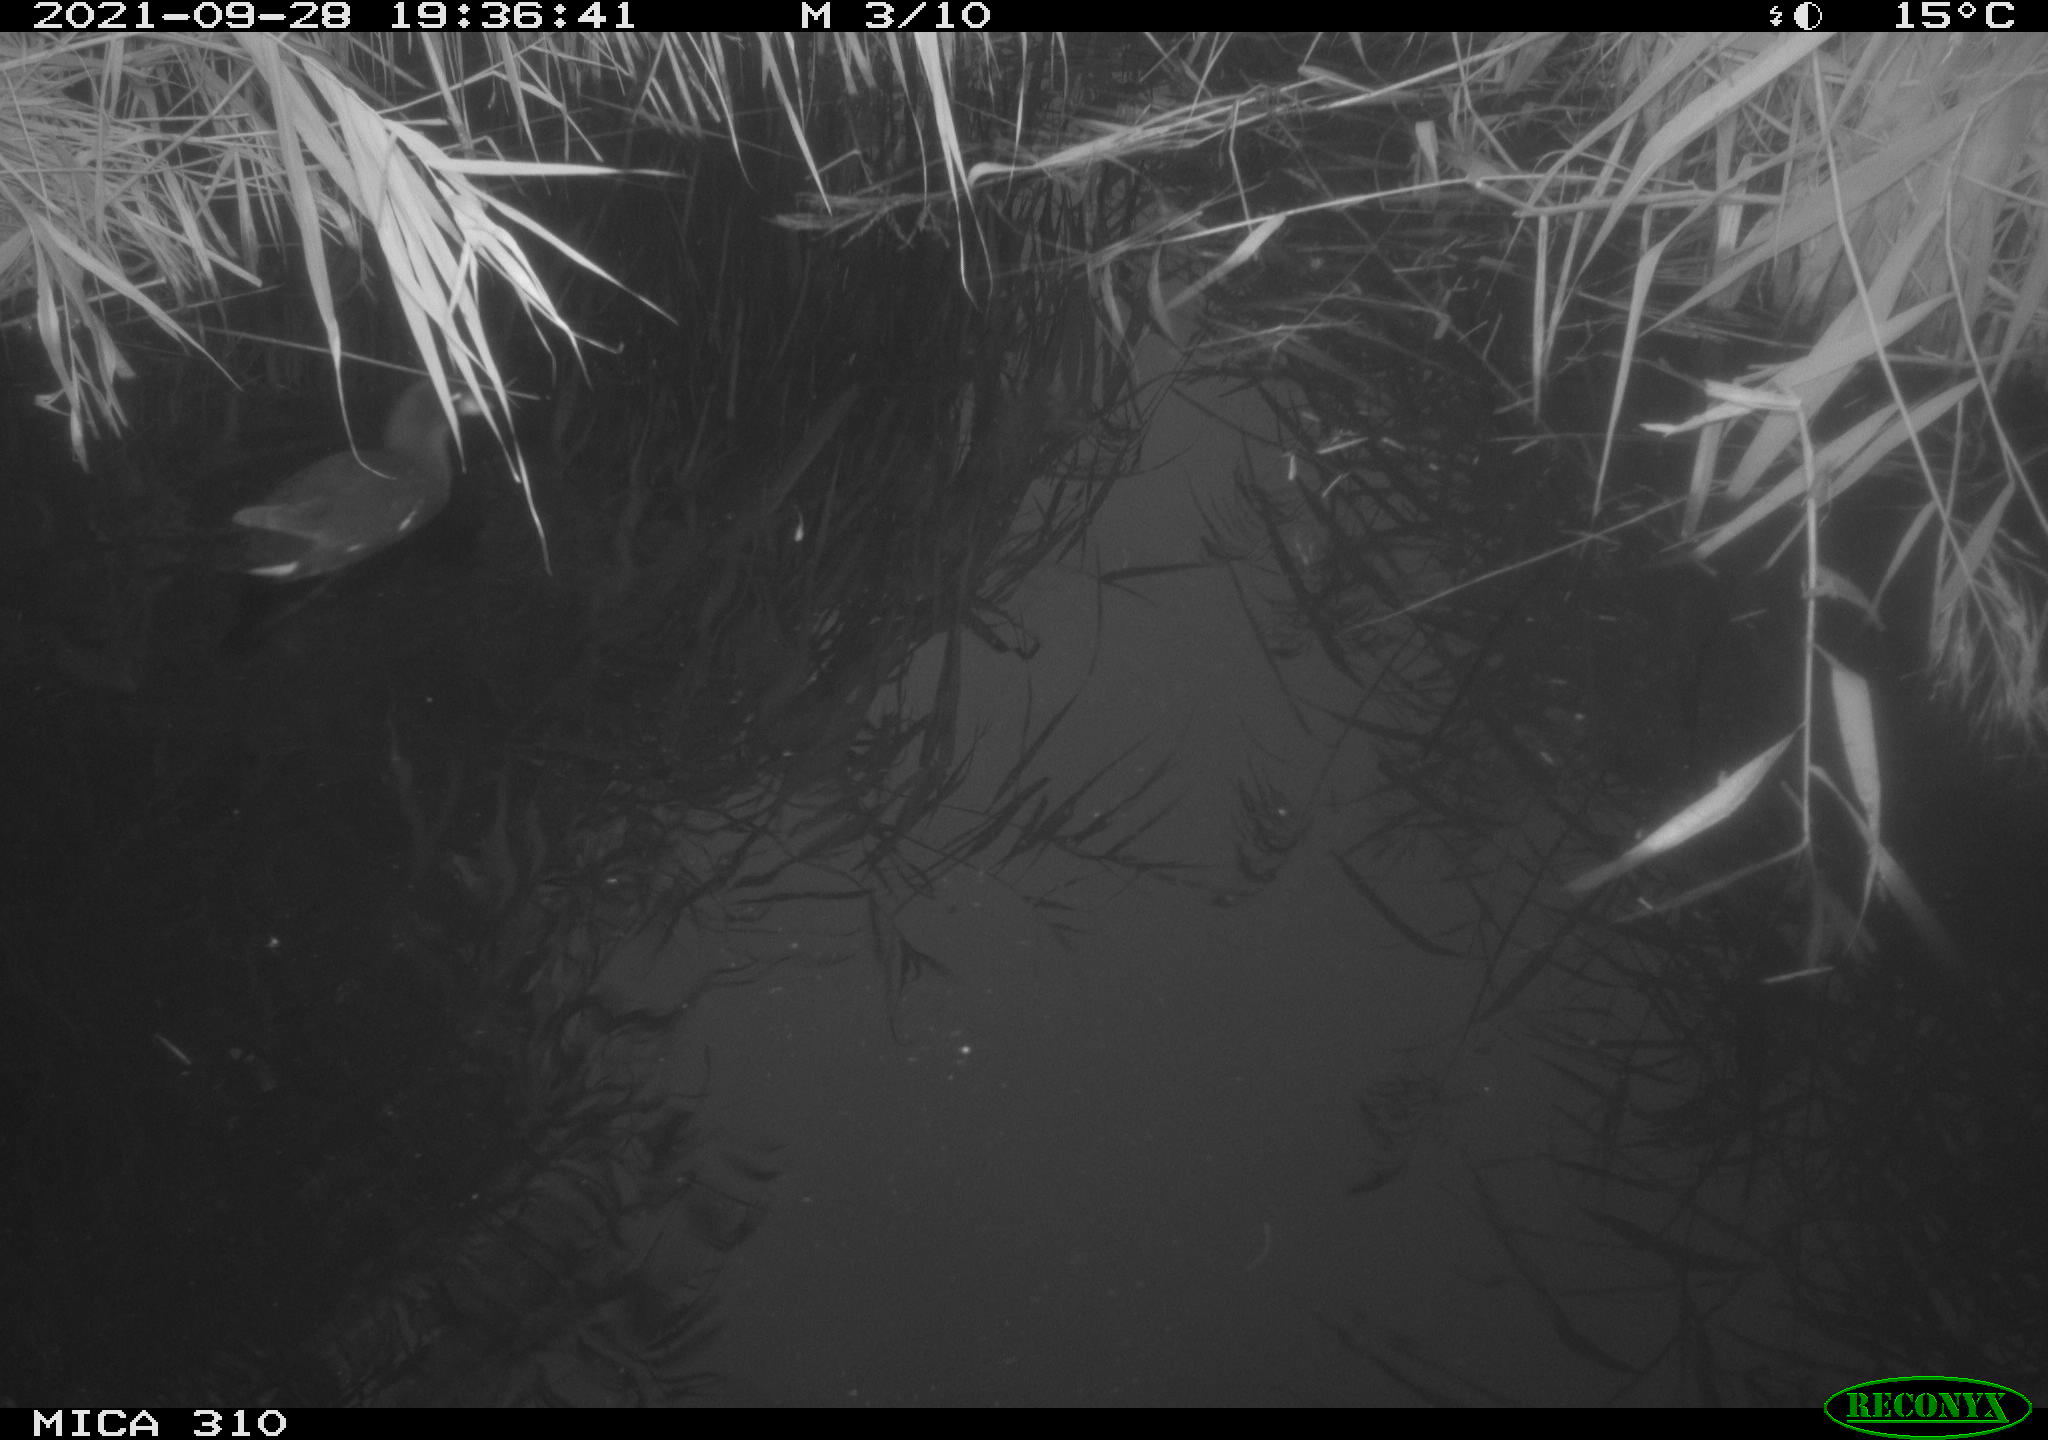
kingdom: Animalia
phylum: Chordata
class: Aves
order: Gruiformes
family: Rallidae
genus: Gallinula
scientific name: Gallinula chloropus
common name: Common moorhen
